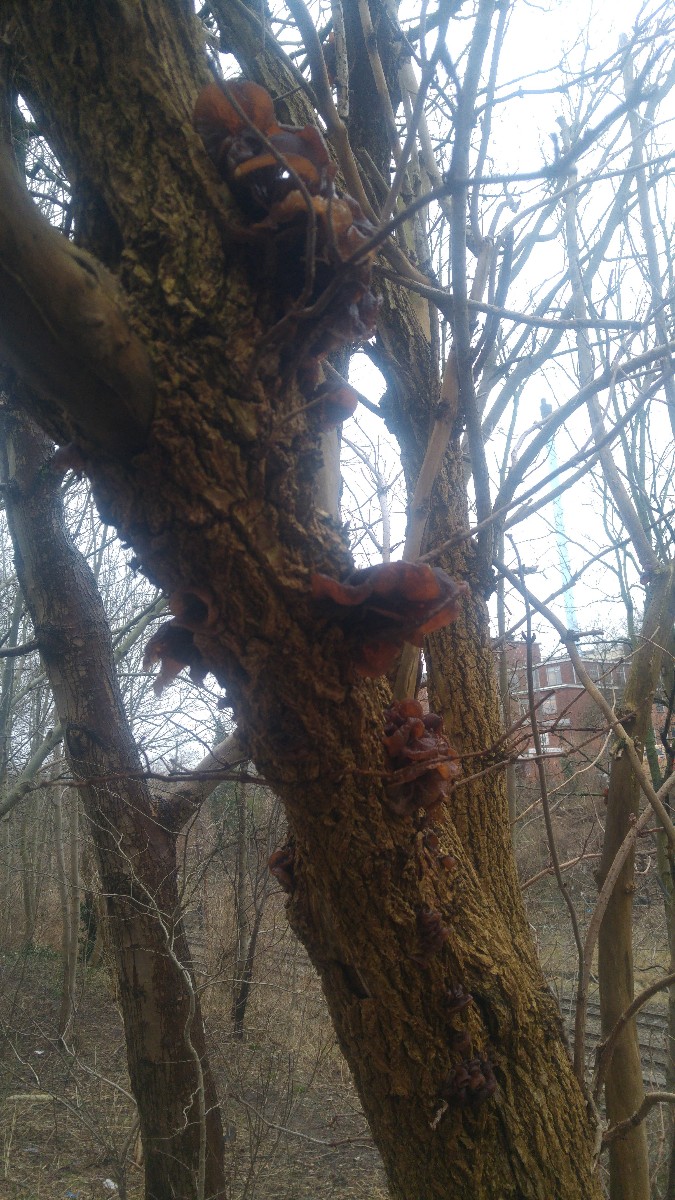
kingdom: Fungi
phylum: Basidiomycota
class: Agaricomycetes
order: Auriculariales
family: Auriculariaceae
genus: Auricularia
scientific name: Auricularia auricula-judae
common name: almindelig judasøre
